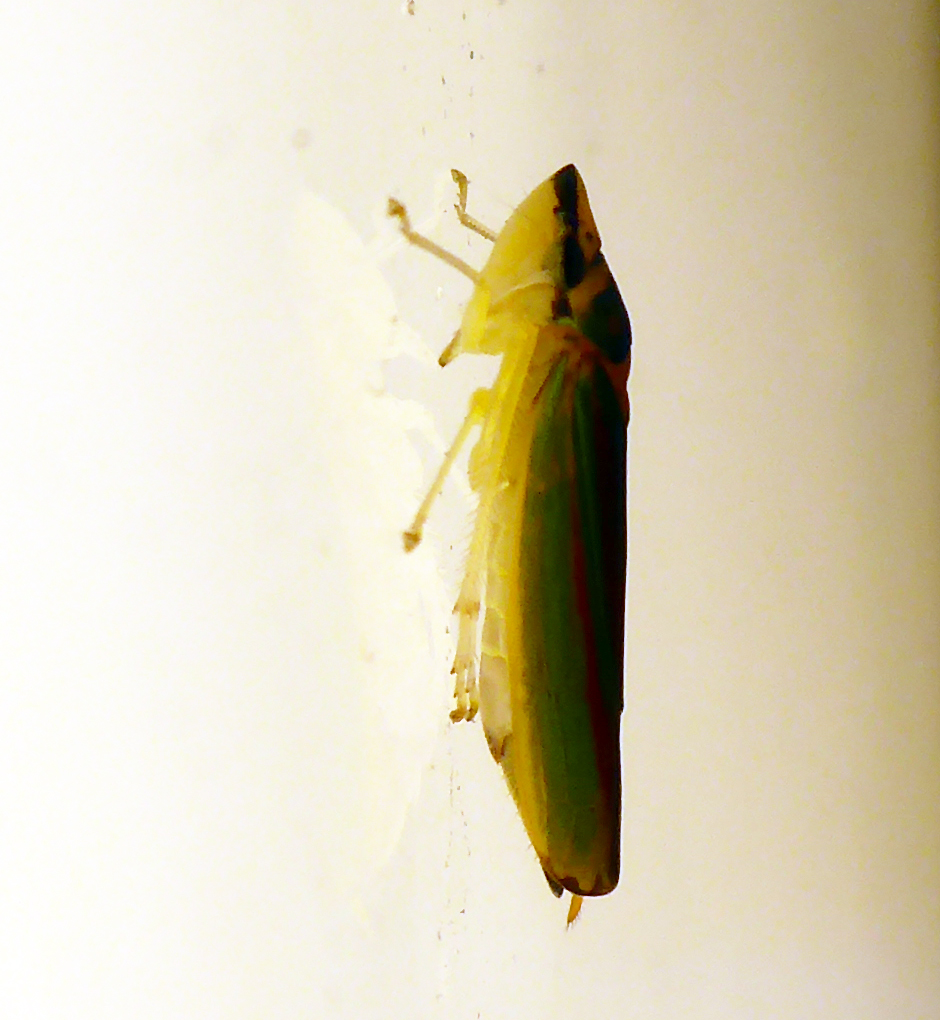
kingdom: Animalia
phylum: Arthropoda
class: Insecta
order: Hemiptera
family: Cicadellidae
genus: Graphocephala
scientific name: Graphocephala fennahi
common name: Rhododendron leafhopper
